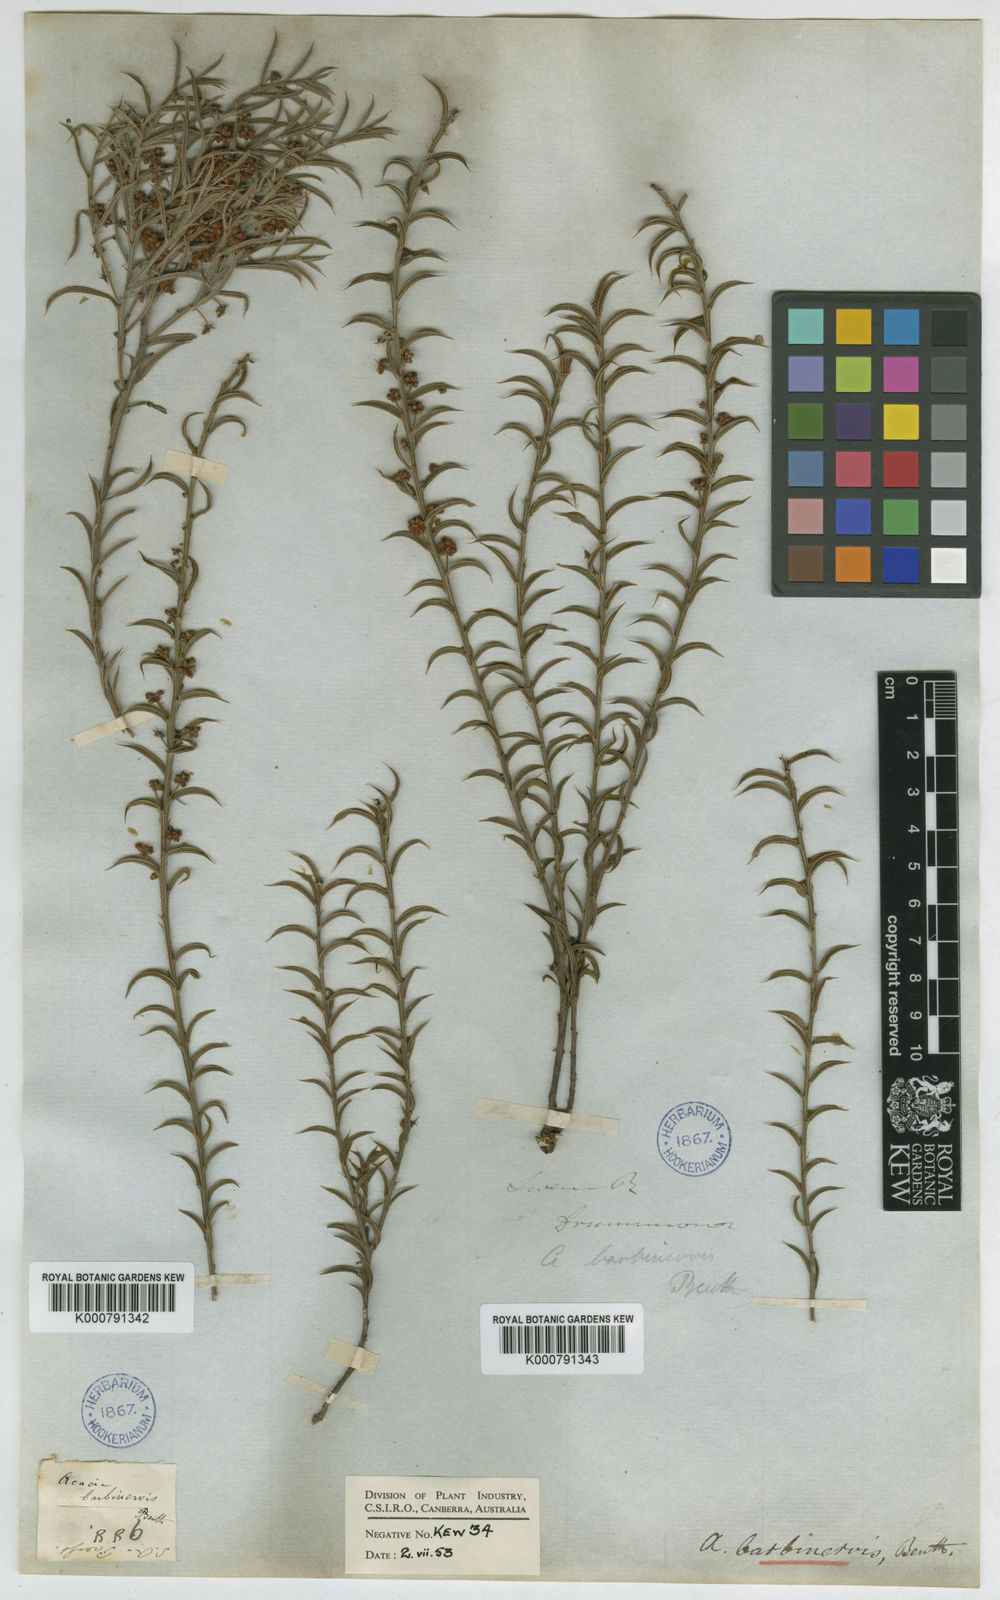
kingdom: Plantae
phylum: Tracheophyta
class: Magnoliopsida
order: Fabales
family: Fabaceae
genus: Acacia
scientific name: Acacia barbinervis
